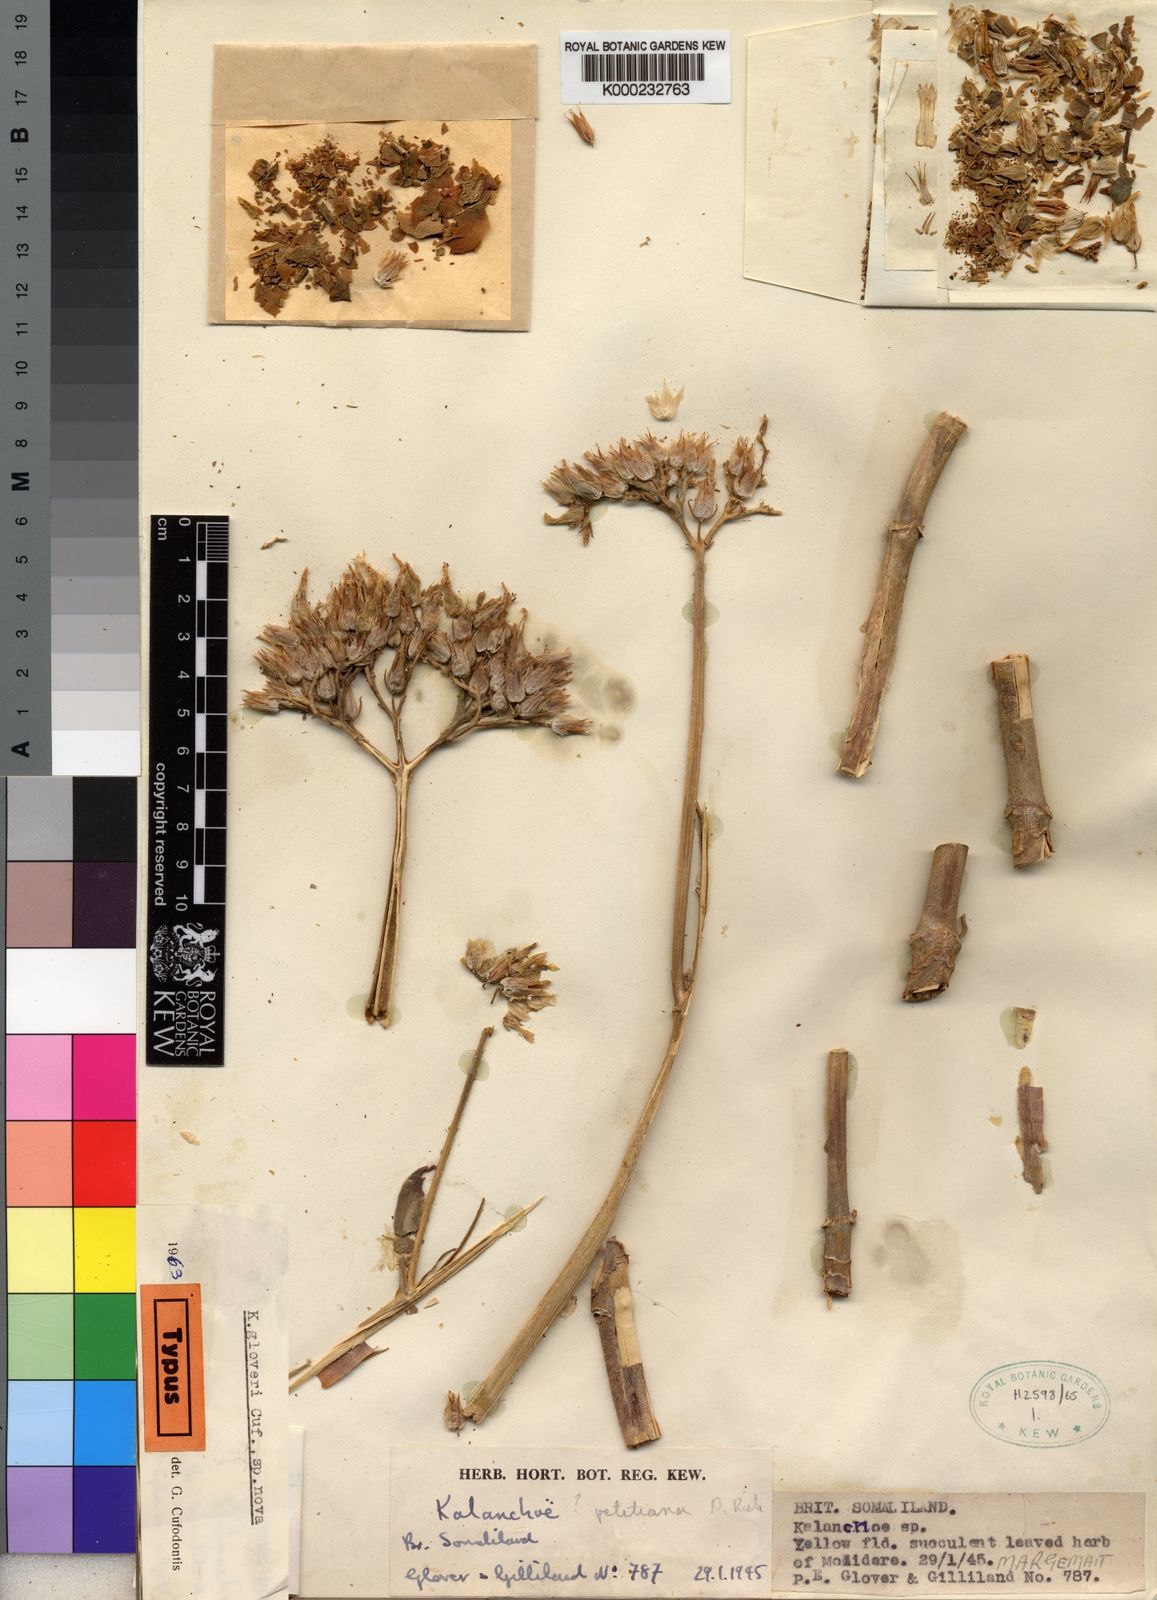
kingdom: Plantae
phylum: Tracheophyta
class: Magnoliopsida
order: Saxifragales
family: Crassulaceae
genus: Kalanchoe
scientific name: Kalanchoe laciniata
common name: Christmastree plant
